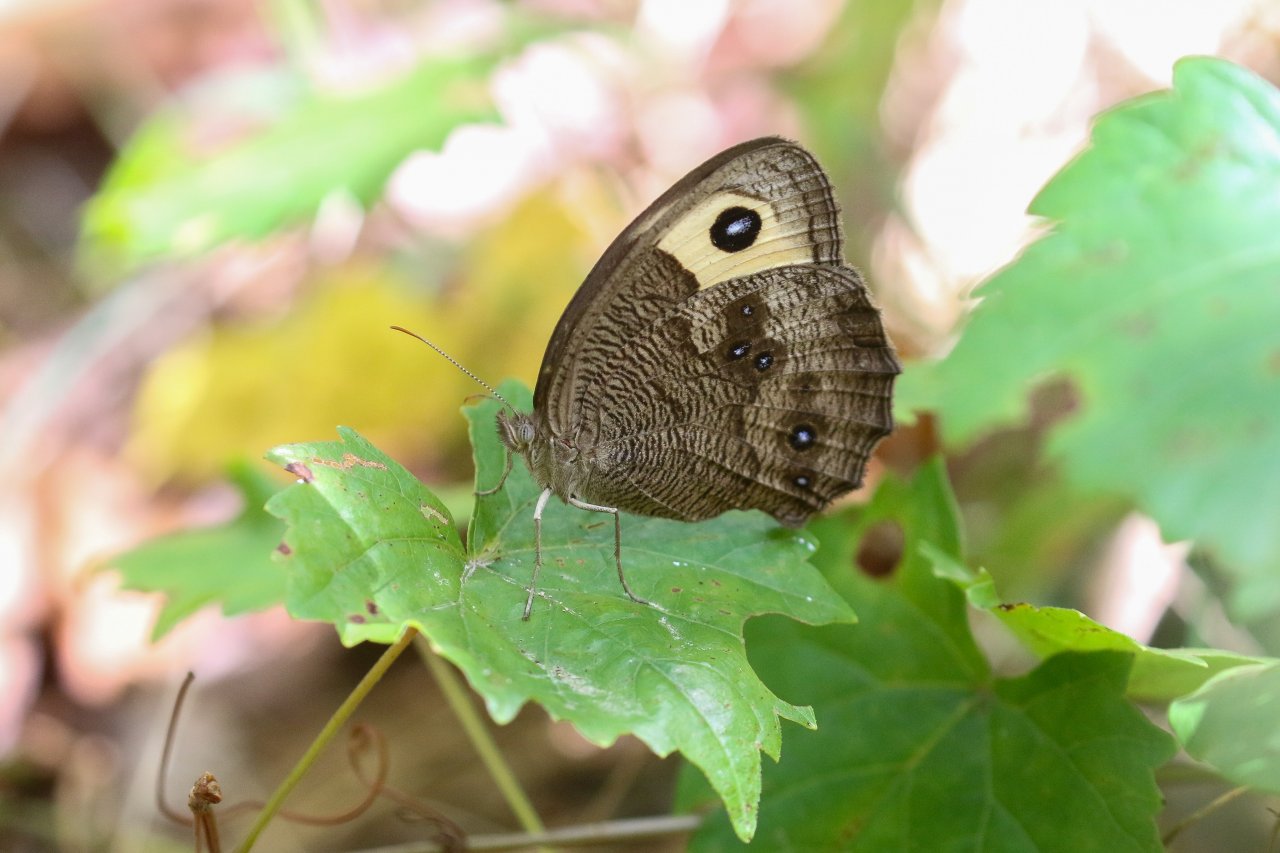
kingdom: Animalia
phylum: Arthropoda
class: Insecta
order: Lepidoptera
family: Nymphalidae
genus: Cercyonis
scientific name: Cercyonis pegala
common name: Common Wood-Nymph
